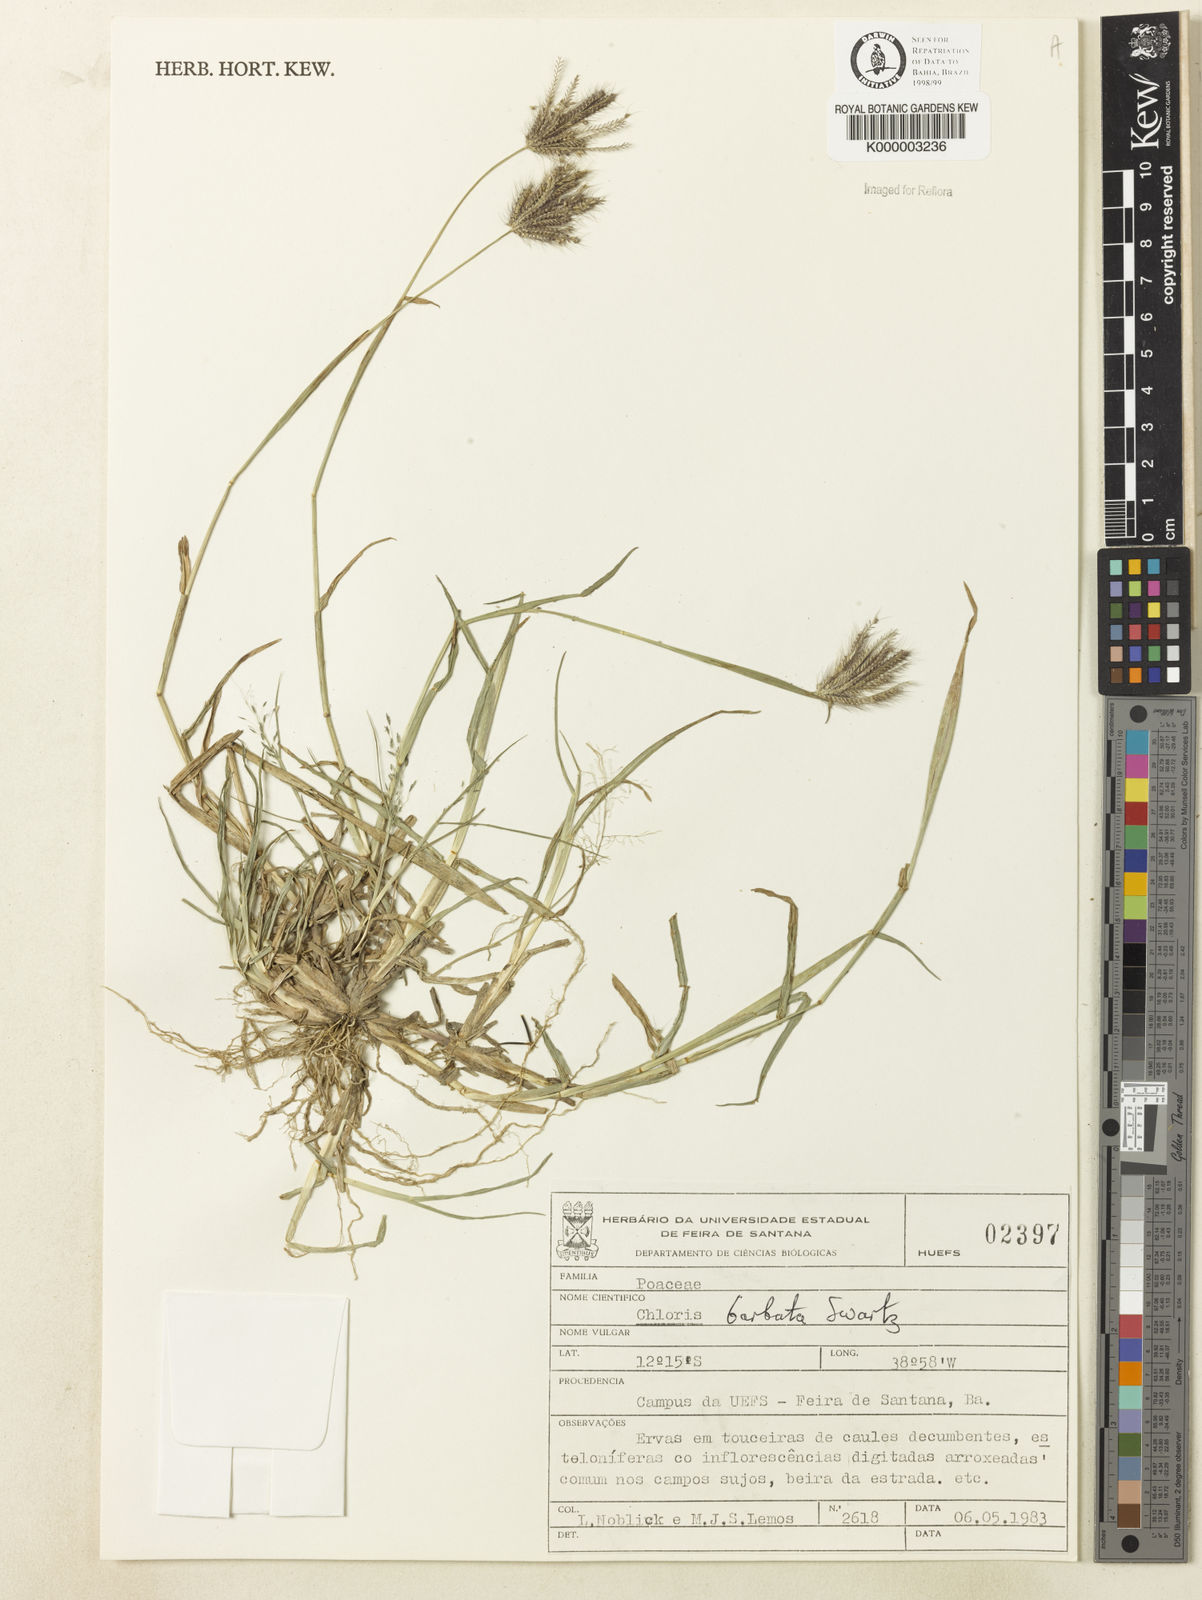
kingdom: Plantae
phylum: Tracheophyta
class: Liliopsida
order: Poales
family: Poaceae
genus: Chloris
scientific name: Chloris
